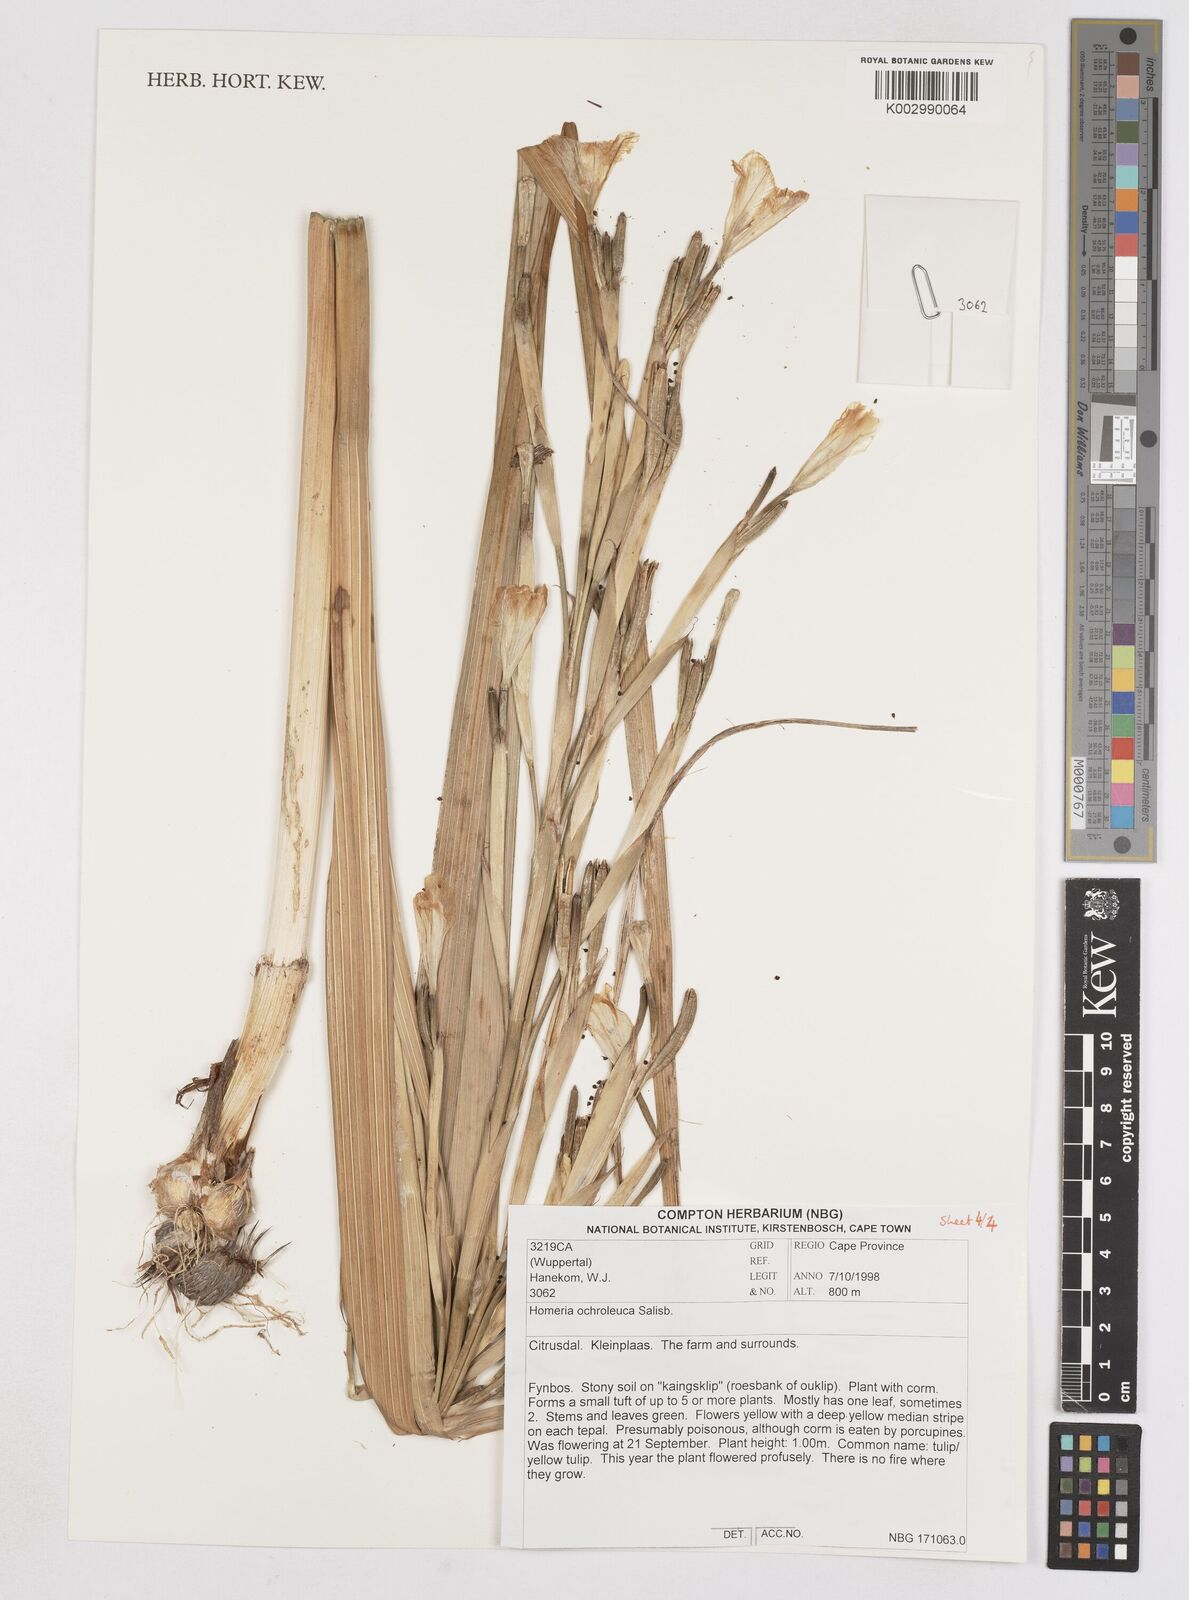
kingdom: Plantae
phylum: Tracheophyta
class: Liliopsida
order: Asparagales
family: Iridaceae
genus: Moraea
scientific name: Moraea ochroleuca
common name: Red tulp
